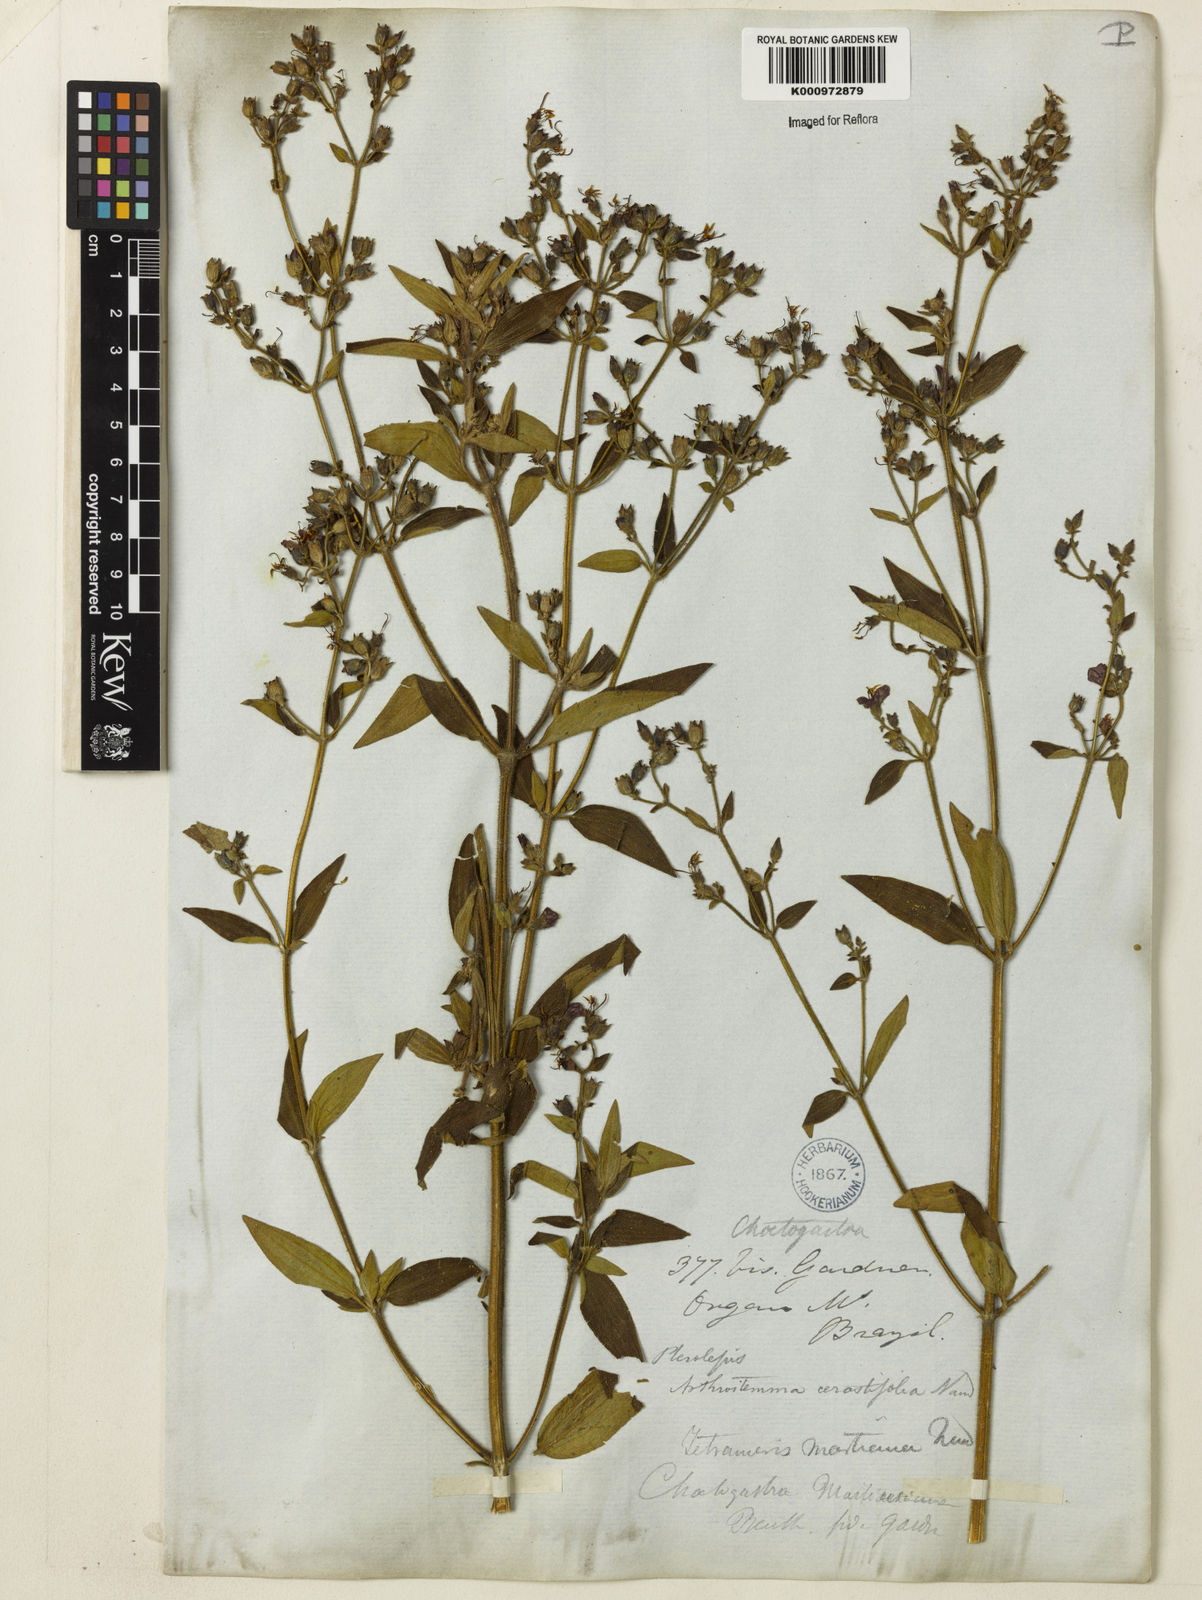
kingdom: Plantae
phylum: Tracheophyta
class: Magnoliopsida
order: Myrtales
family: Melastomataceae
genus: Chaetogastra
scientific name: Chaetogastra herbacea
